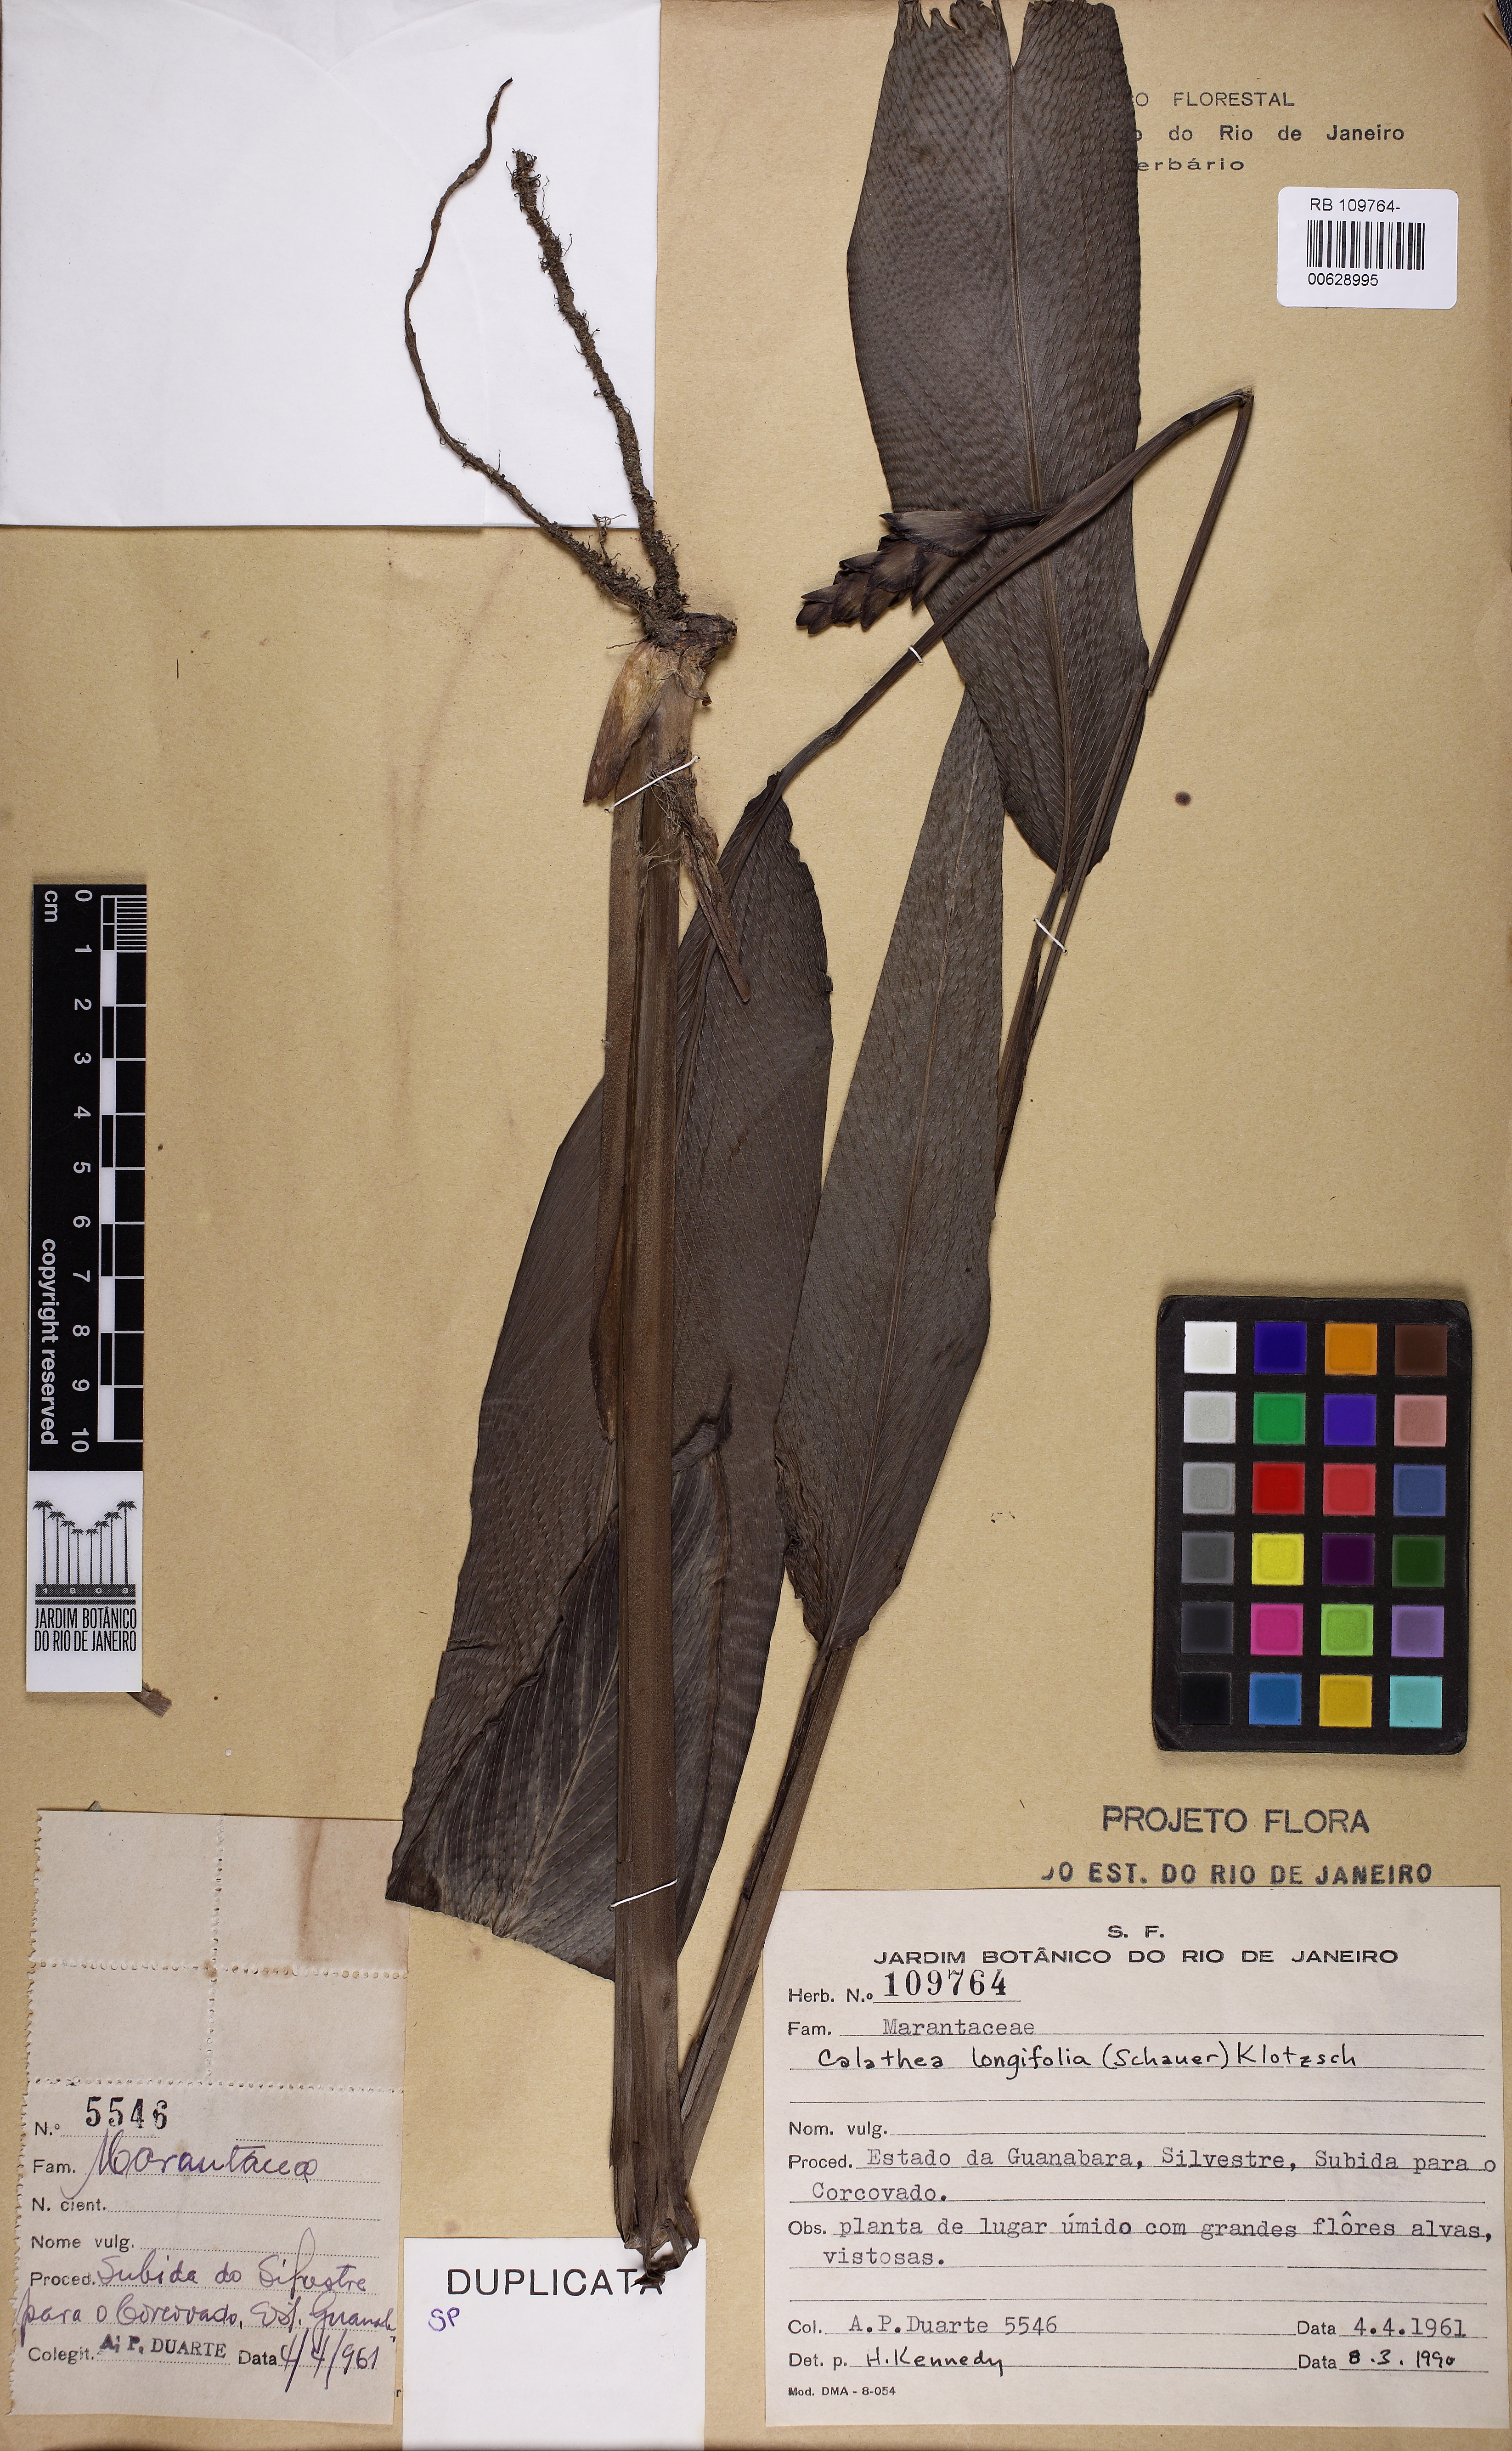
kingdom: Plantae
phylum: Tracheophyta
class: Liliopsida
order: Zingiberales
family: Marantaceae
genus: Goeppertia
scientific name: Goeppertia macilenta
